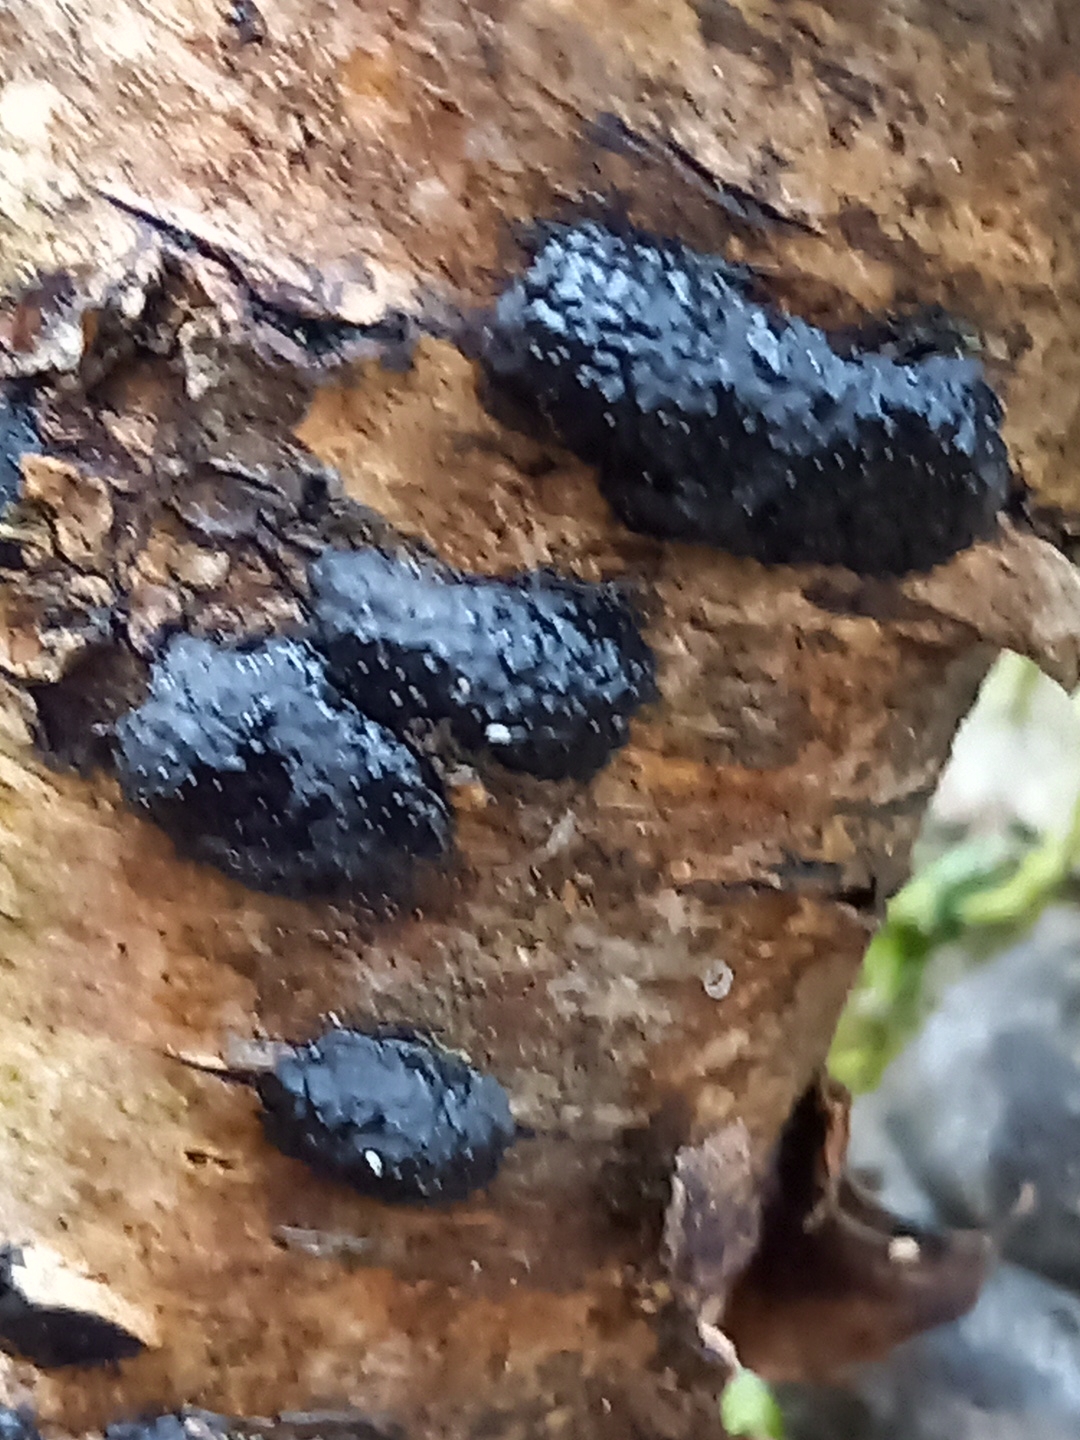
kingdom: Fungi
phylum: Ascomycota
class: Sordariomycetes
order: Xylariales
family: Hypoxylaceae
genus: Jackrogersella
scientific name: Jackrogersella multiformis
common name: foranderlig kulbær
